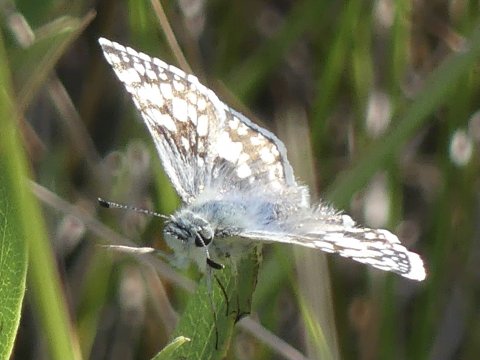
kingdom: Animalia
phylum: Arthropoda
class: Insecta
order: Lepidoptera
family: Hesperiidae
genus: Pyrgus
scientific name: Pyrgus communis
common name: Common Checkered-Skipper
